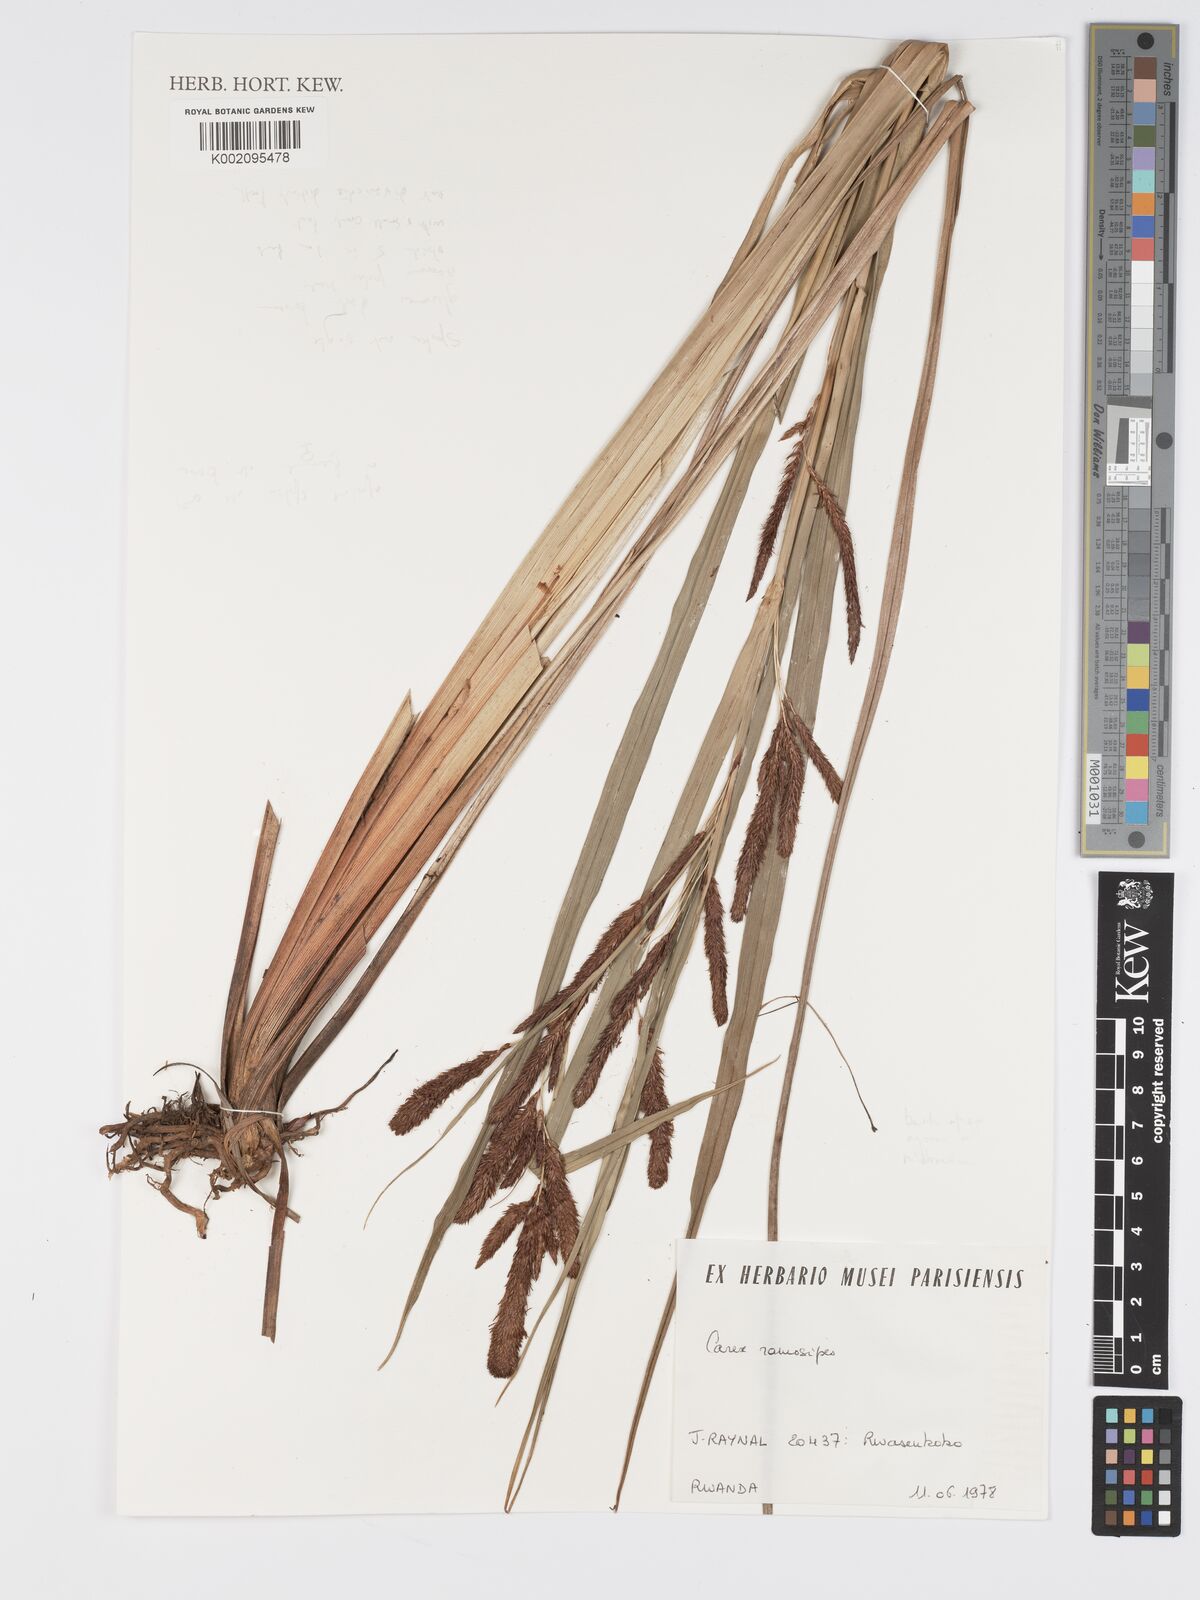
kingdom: Plantae
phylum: Tracheophyta
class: Liliopsida
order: Poales
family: Cyperaceae
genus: Carex
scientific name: Carex mildbraediana
